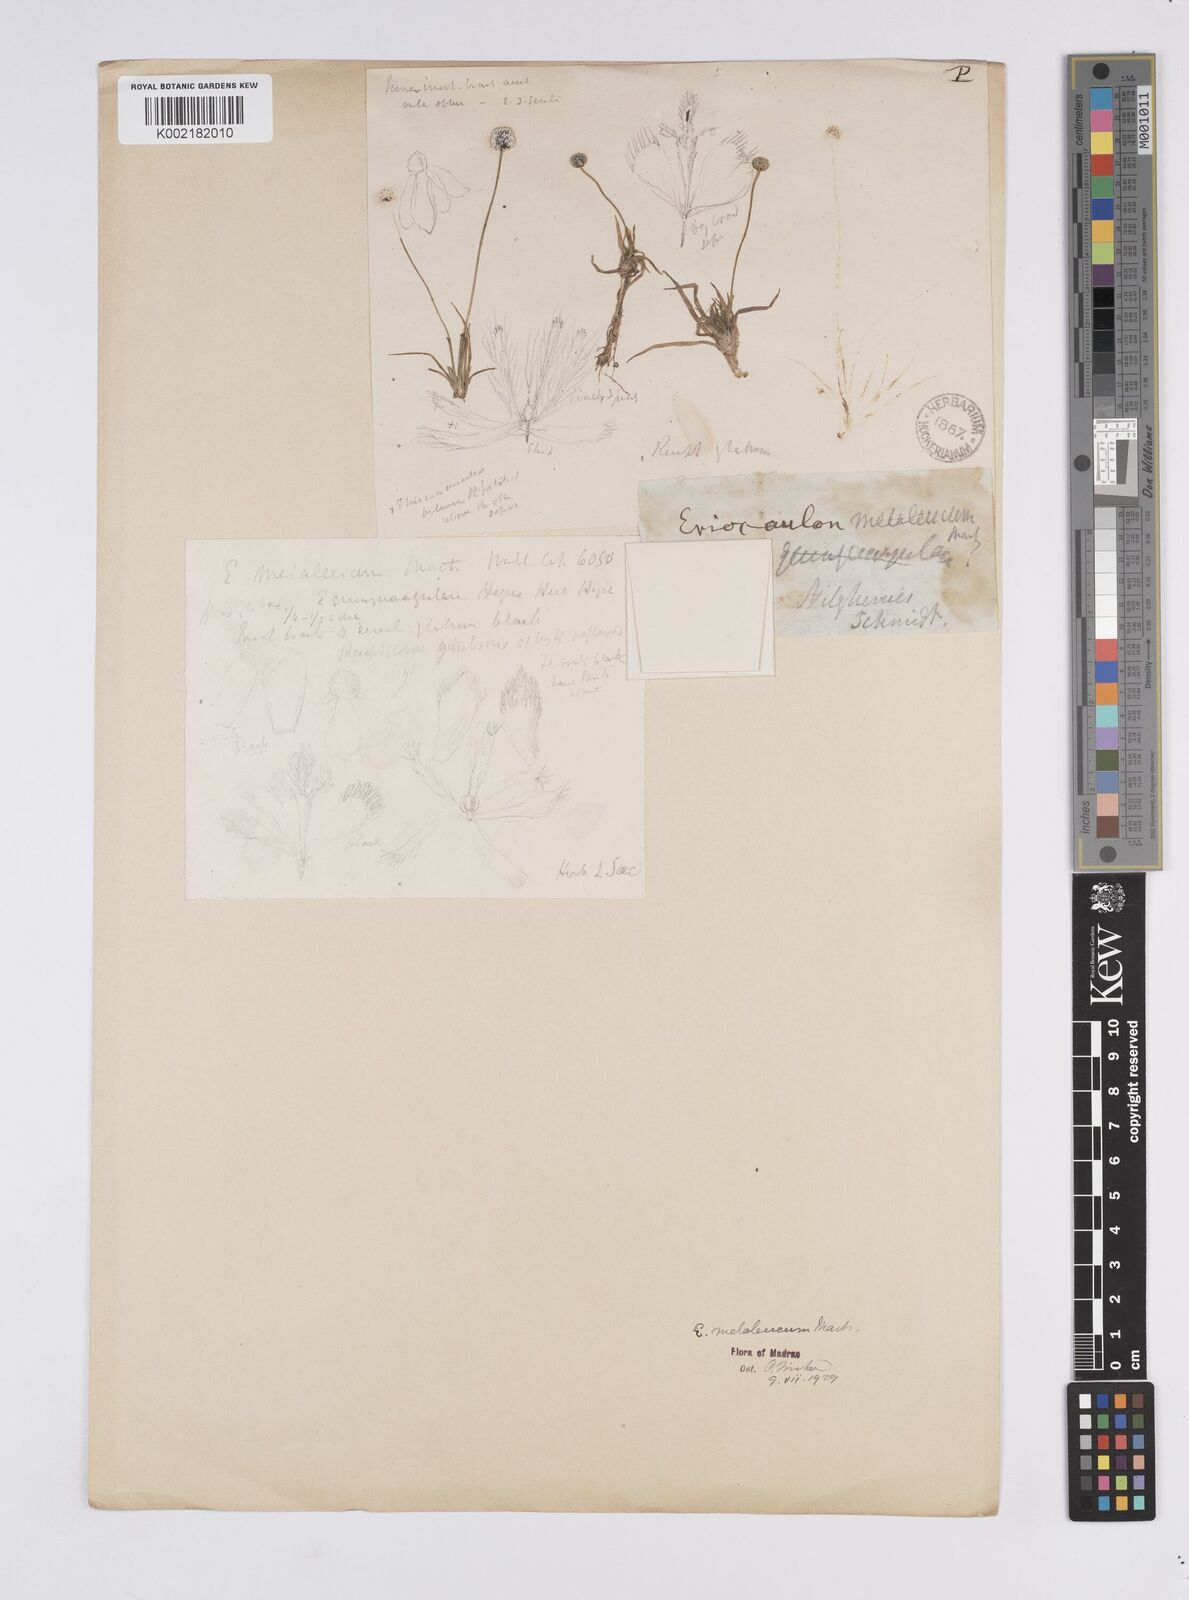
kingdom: Plantae
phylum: Tracheophyta
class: Liliopsida
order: Poales
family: Eriocaulaceae
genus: Eriocaulon
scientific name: Eriocaulon leucomelas
